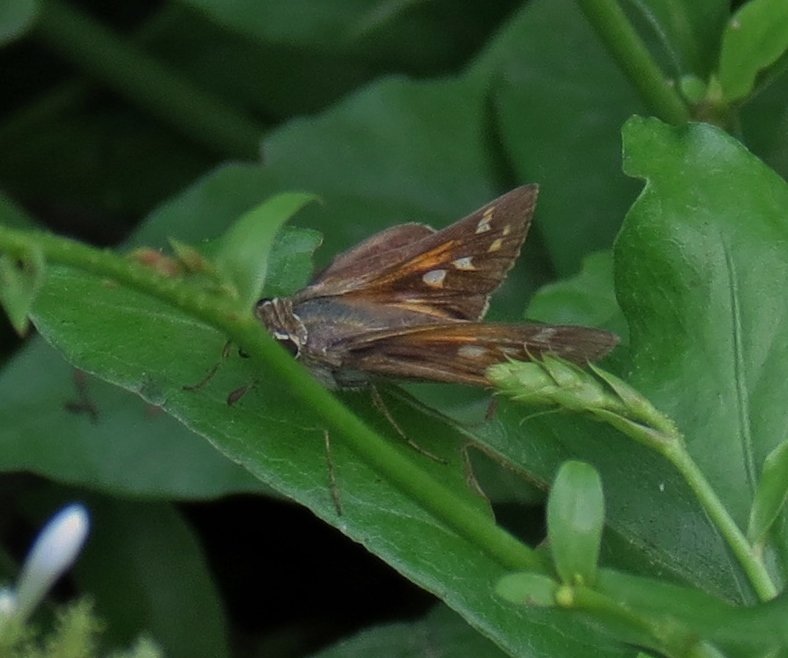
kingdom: Animalia
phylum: Arthropoda
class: Insecta
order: Lepidoptera
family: Hesperiidae
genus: Atalopedes
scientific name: Atalopedes campestris
